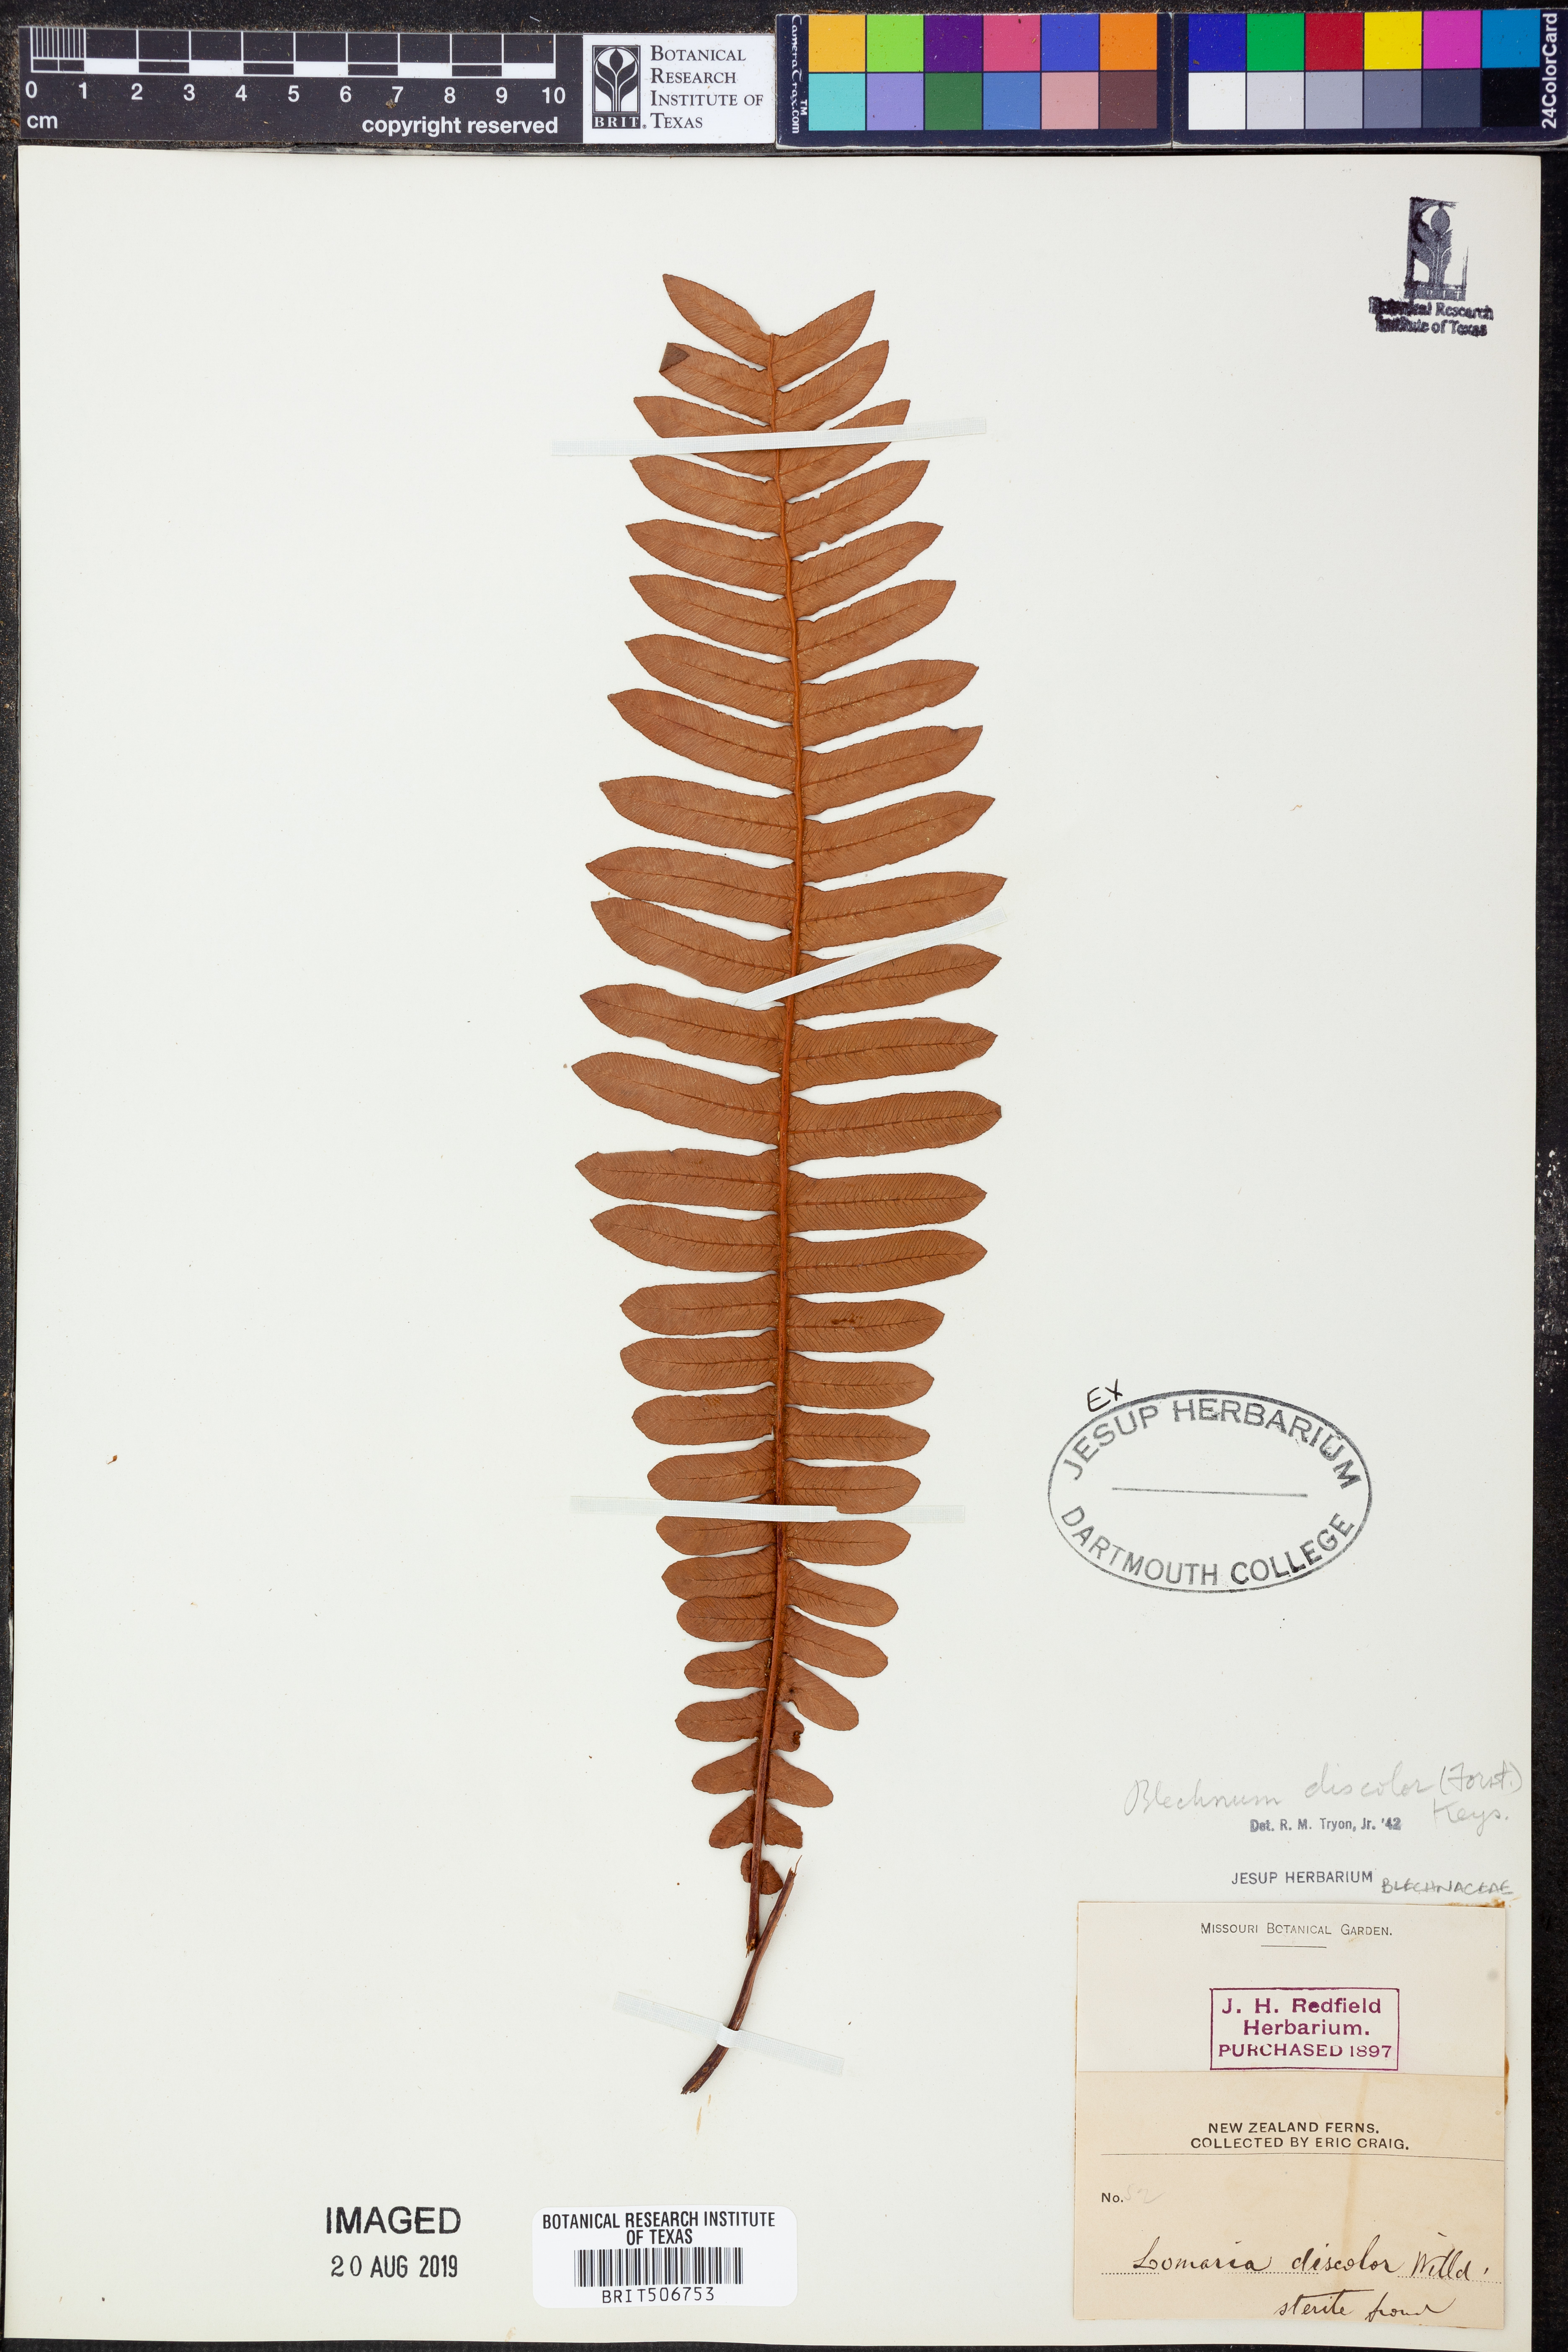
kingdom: Plantae
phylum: Tracheophyta
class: Polypodiopsida
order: Polypodiales
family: Blechnaceae
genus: Lomaria
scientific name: Lomaria discolor
